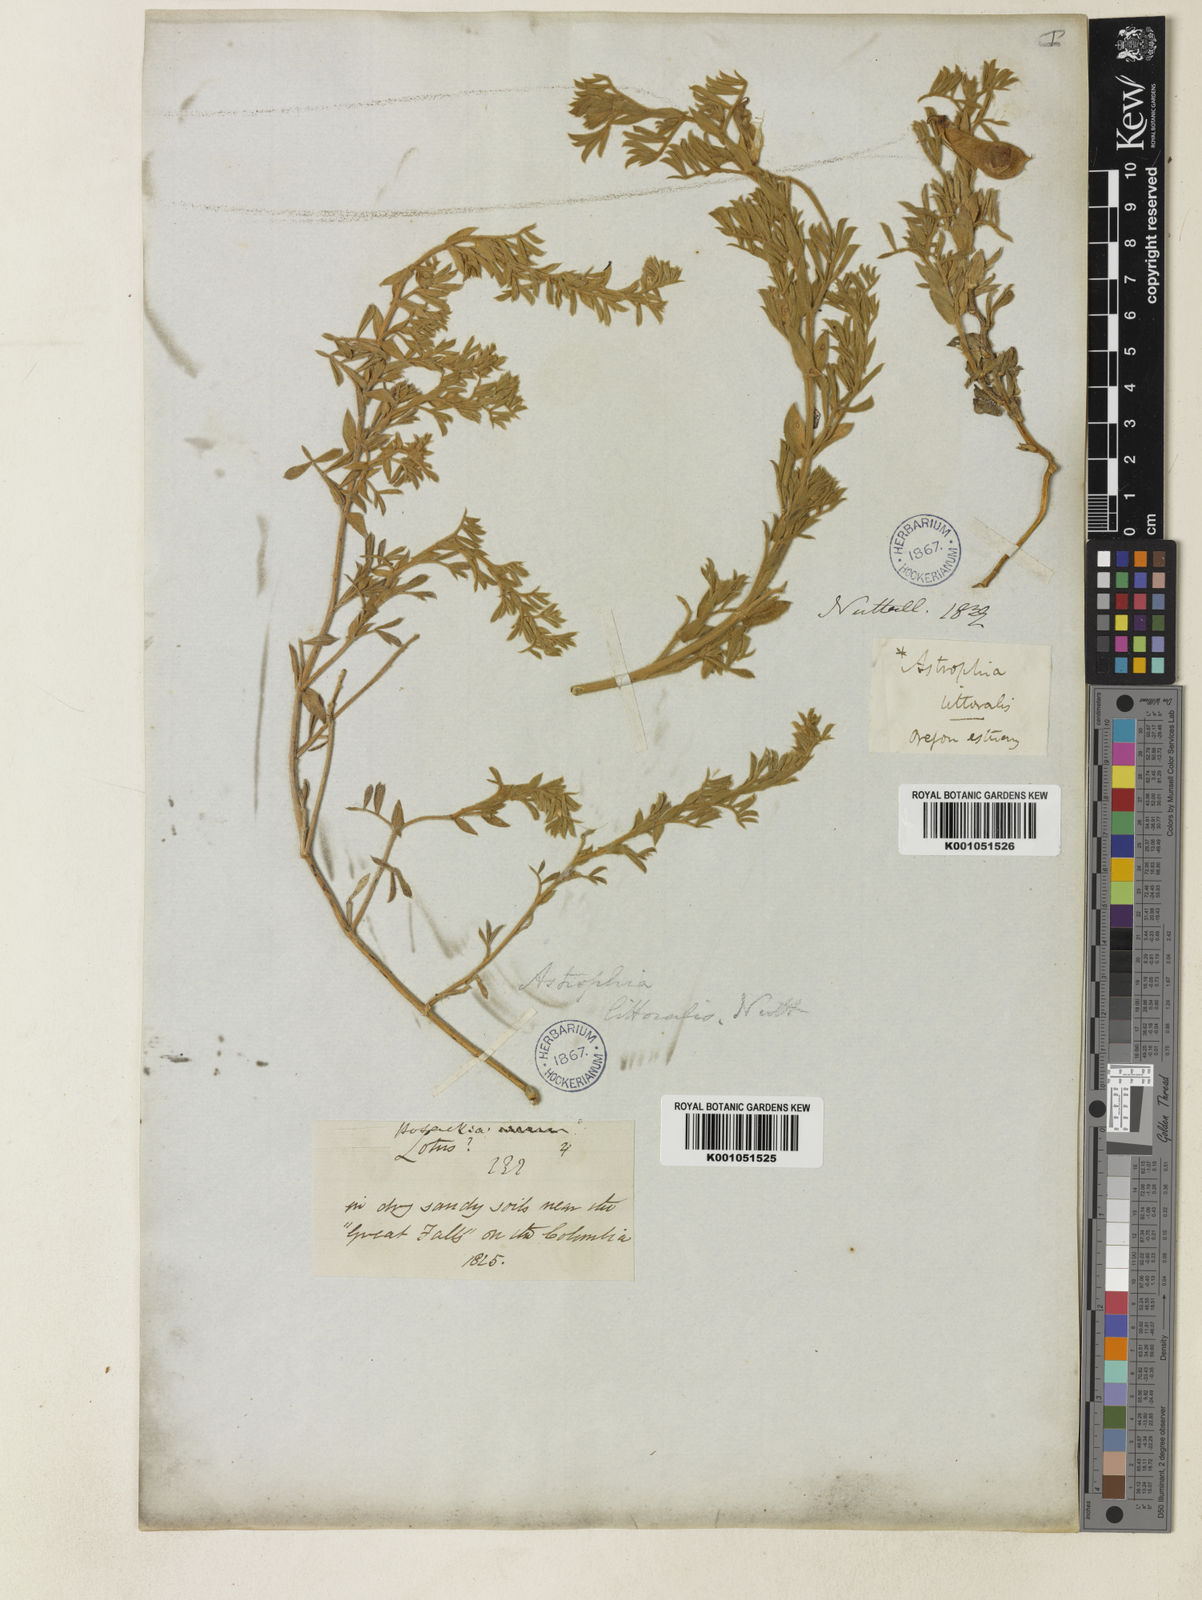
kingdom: Plantae
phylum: Tracheophyta
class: Magnoliopsida
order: Fabales
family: Fabaceae
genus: Lathyrus
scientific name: Lathyrus littoralis
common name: Dune sweet pea
